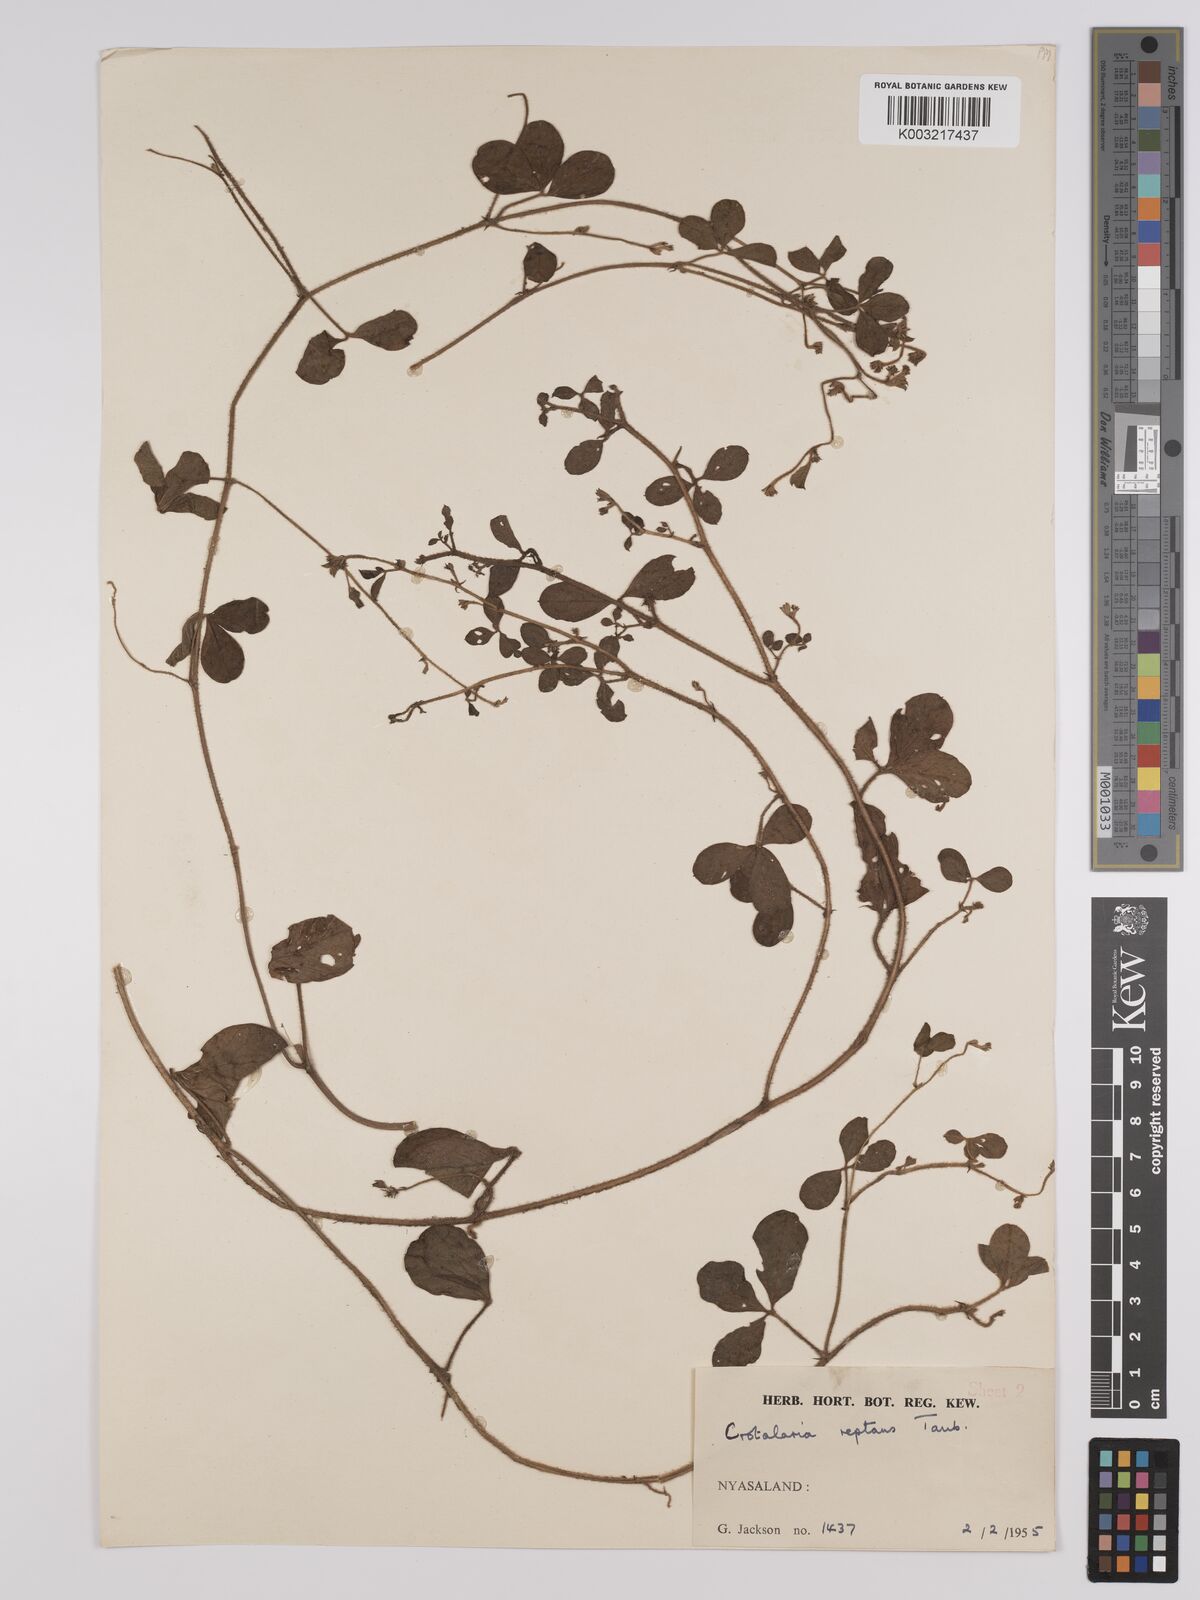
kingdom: Plantae
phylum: Tracheophyta
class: Magnoliopsida
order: Fabales
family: Fabaceae
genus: Crotalaria
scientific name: Crotalaria reptans
